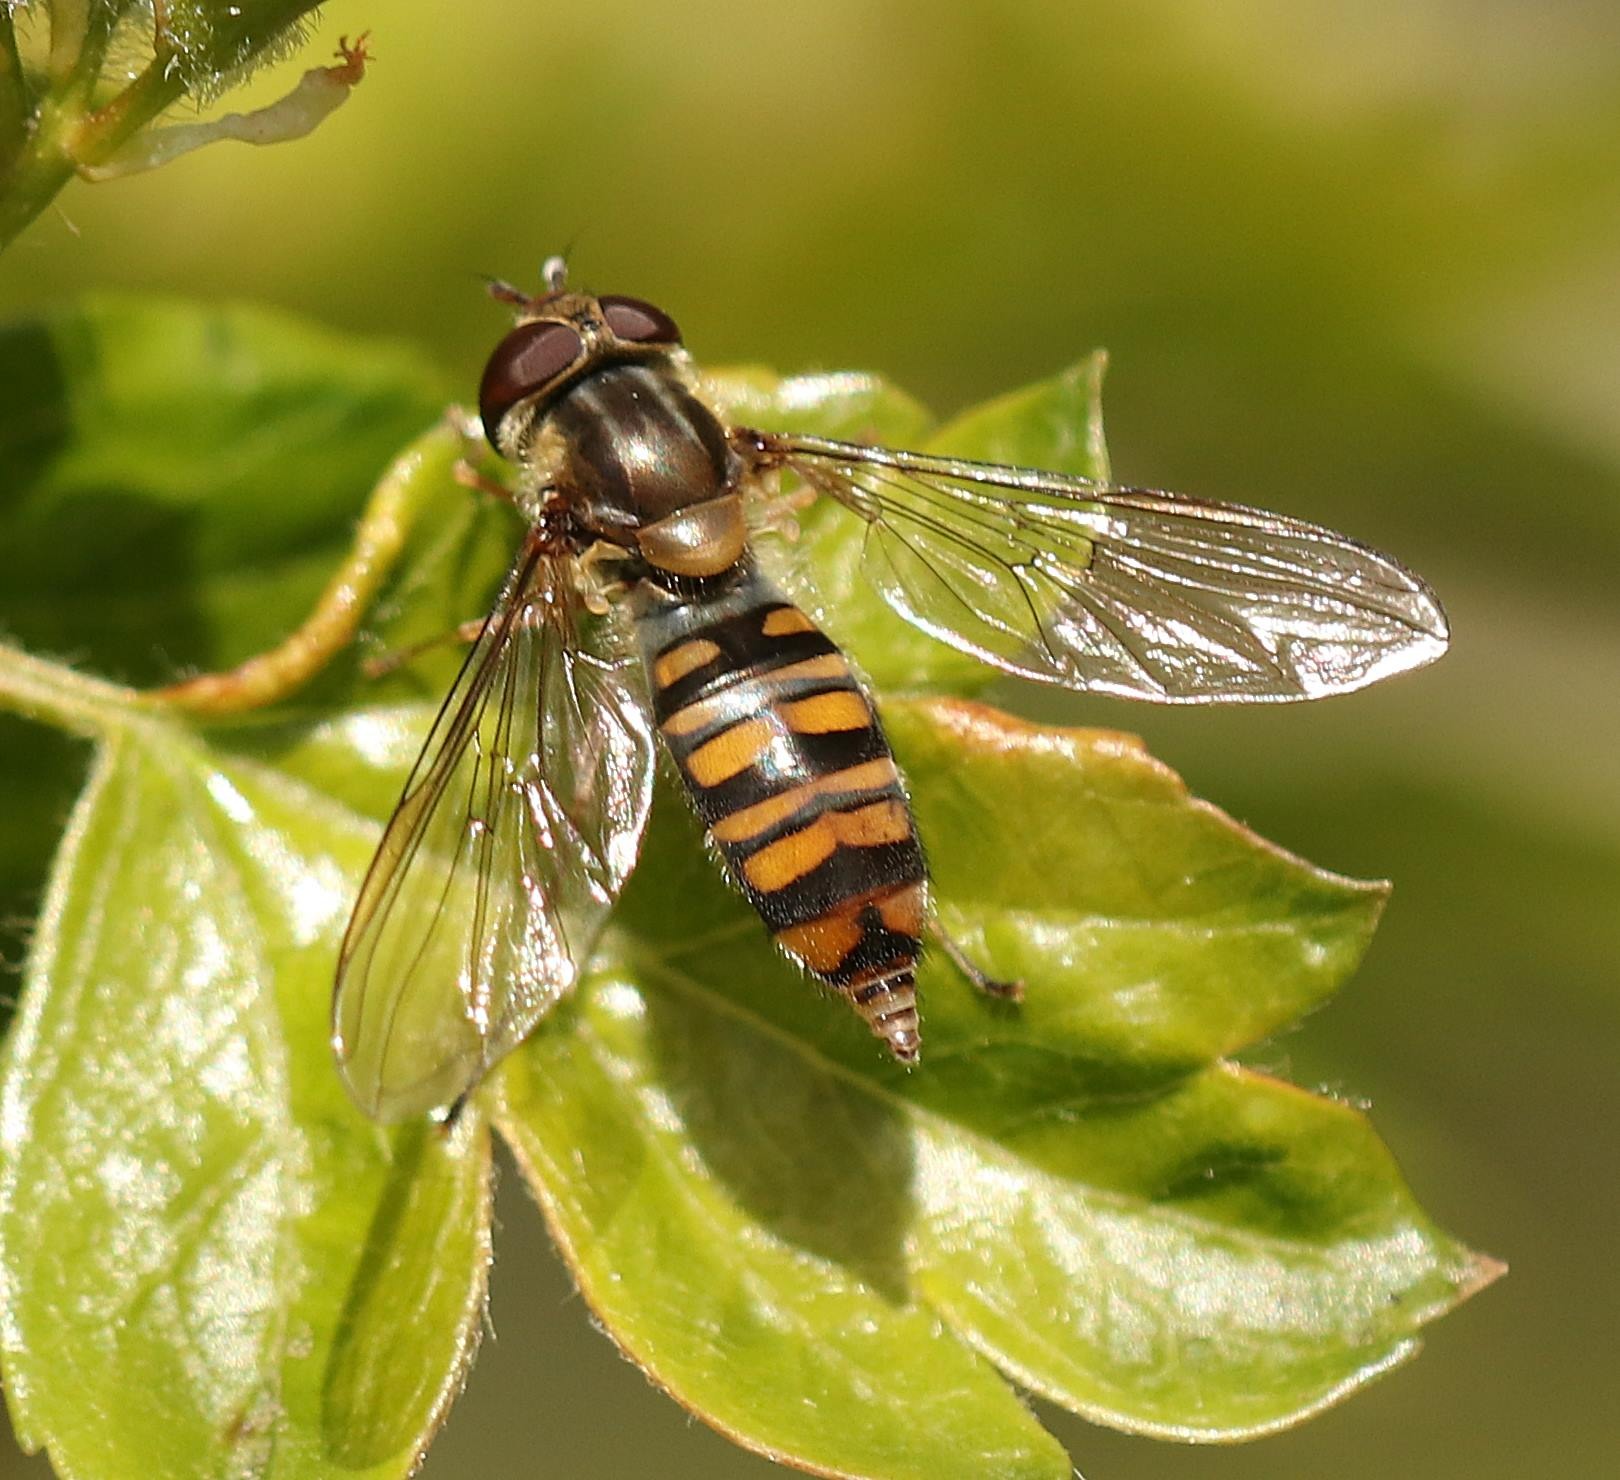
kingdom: Animalia
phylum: Arthropoda
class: Insecta
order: Diptera
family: Syrphidae
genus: Episyrphus
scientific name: Episyrphus balteatus
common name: Dobbeltbåndet svirreflue
